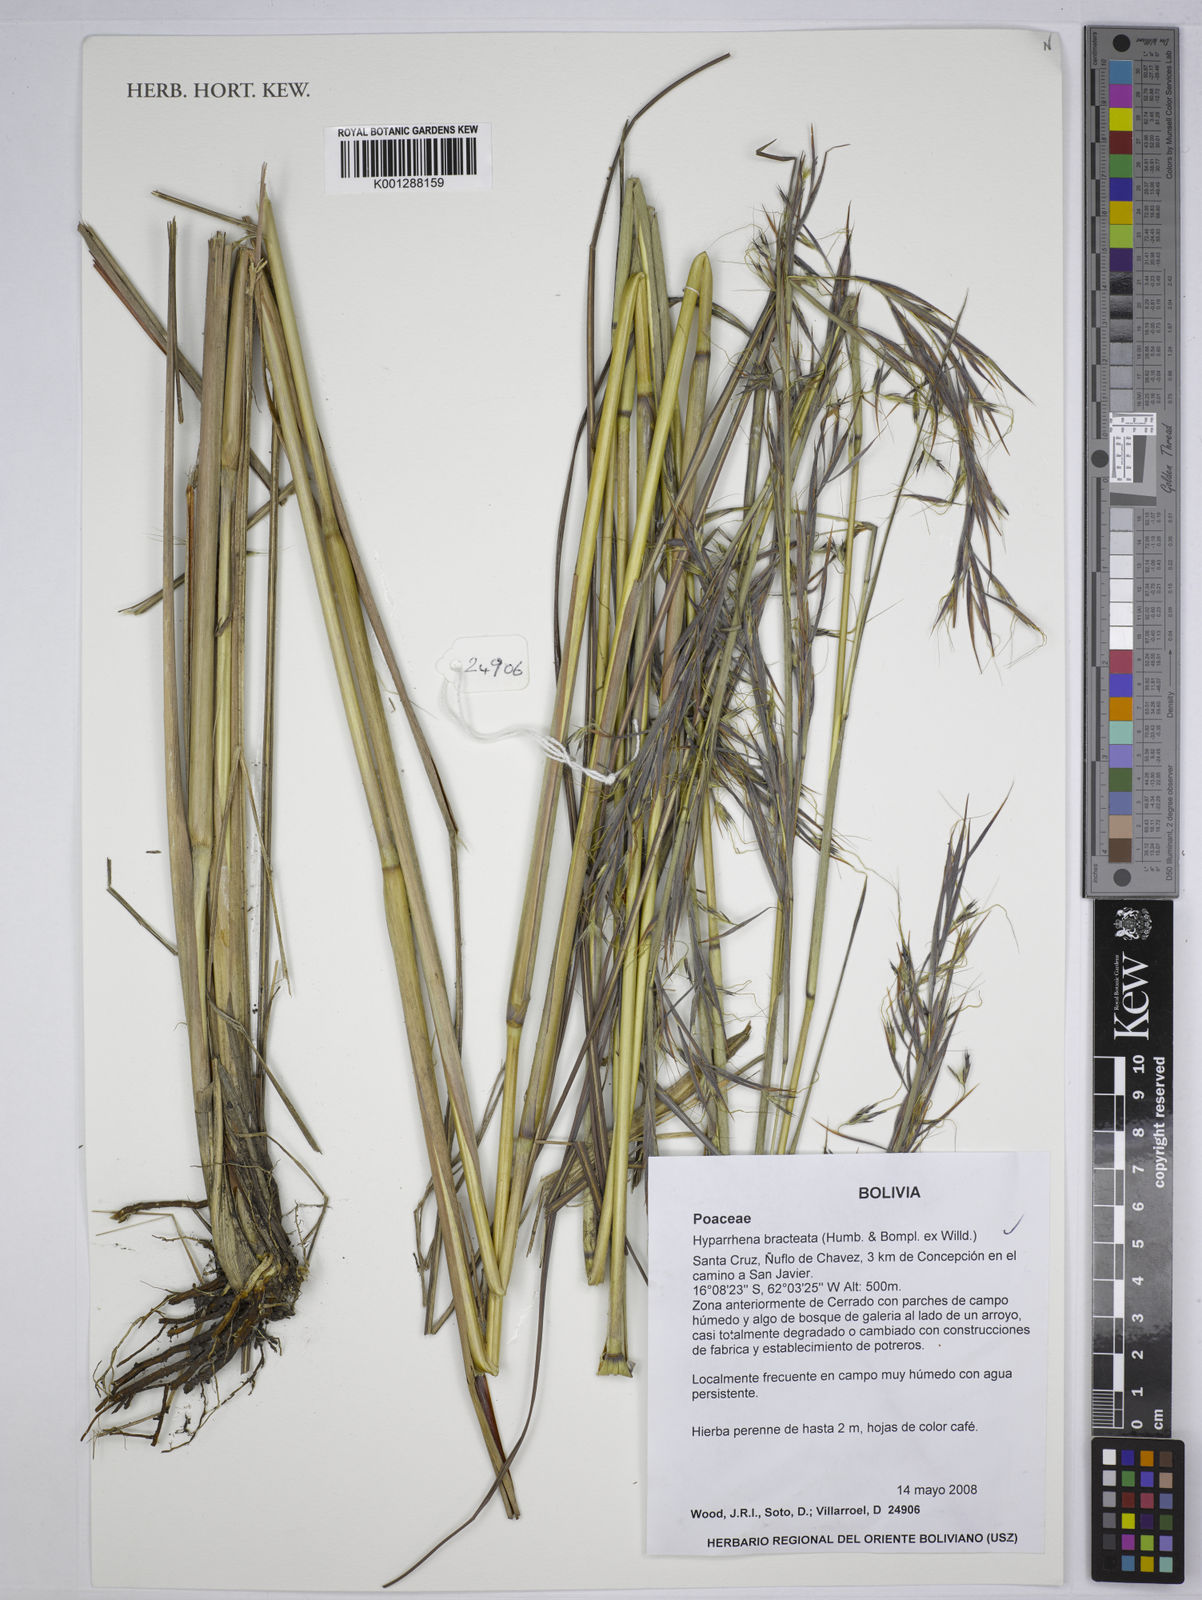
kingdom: Plantae
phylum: Tracheophyta
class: Liliopsida
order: Poales
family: Poaceae
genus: Hyparrhenia
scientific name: Hyparrhenia bracteata
